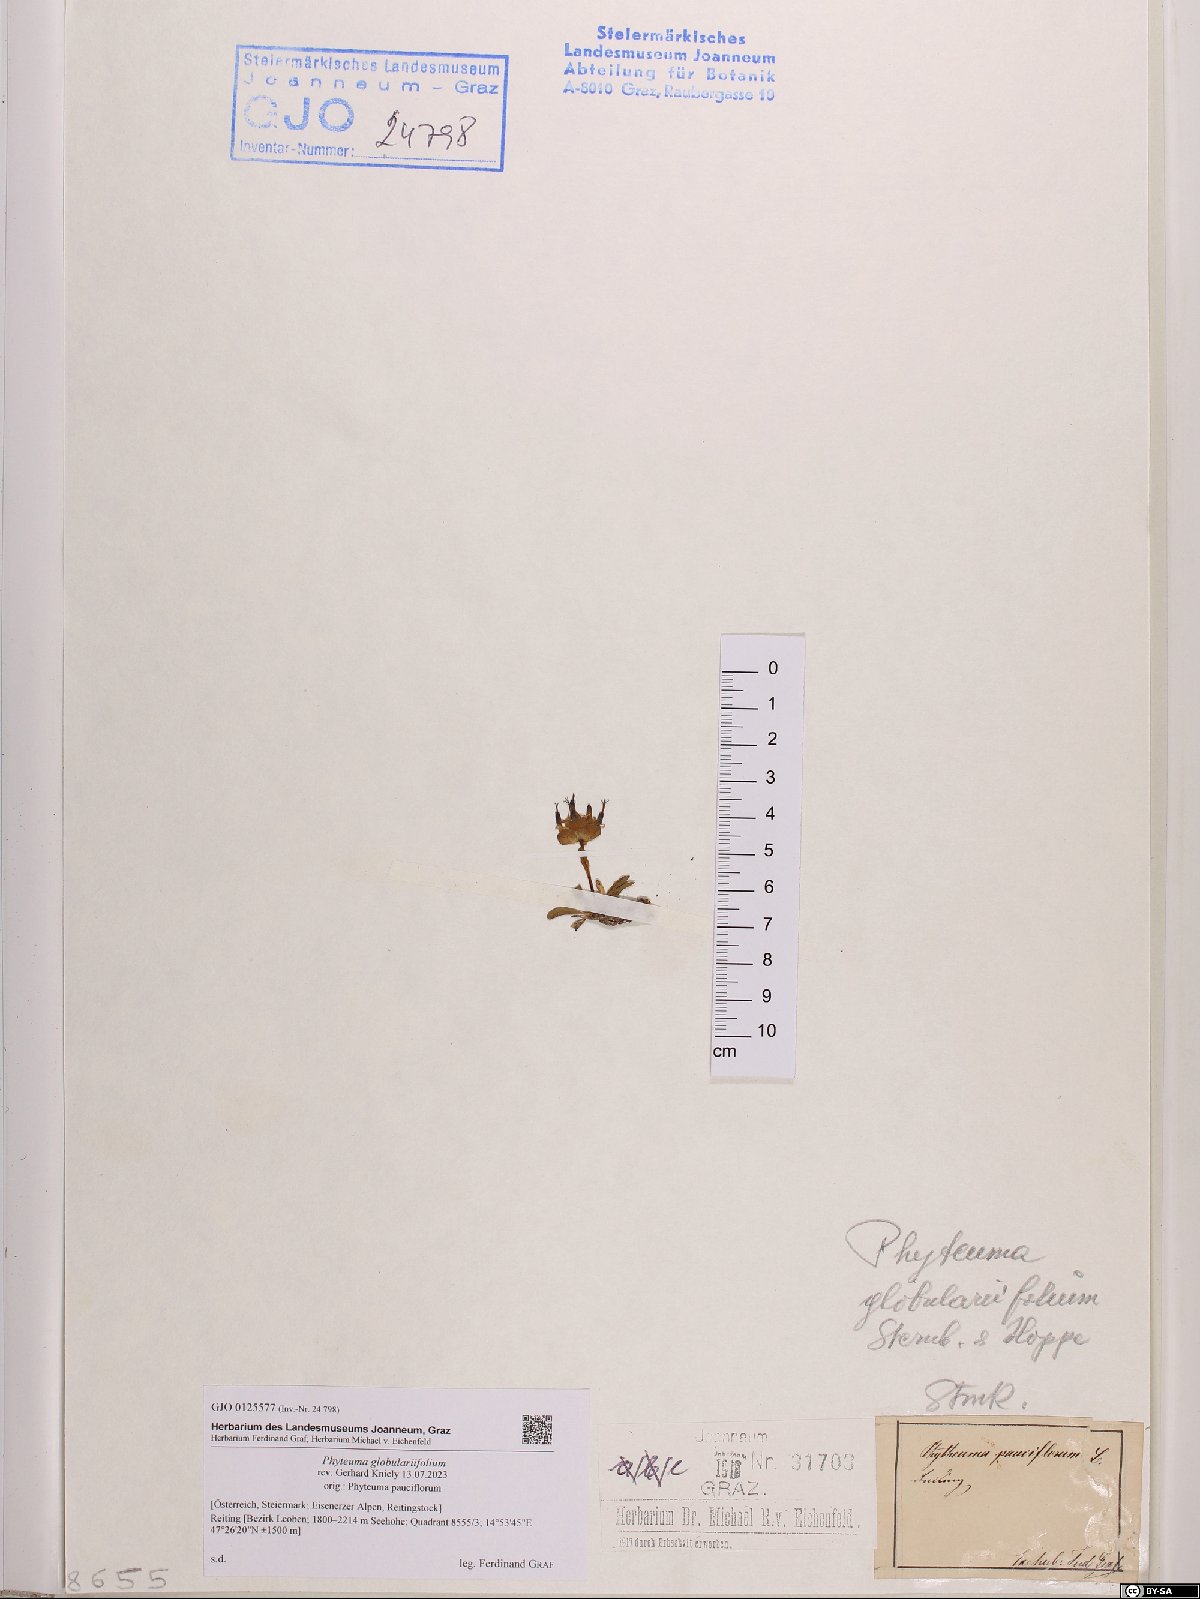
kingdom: Plantae
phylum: Tracheophyta
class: Magnoliopsida
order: Asterales
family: Campanulaceae
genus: Phyteuma
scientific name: Phyteuma globulariifolium
